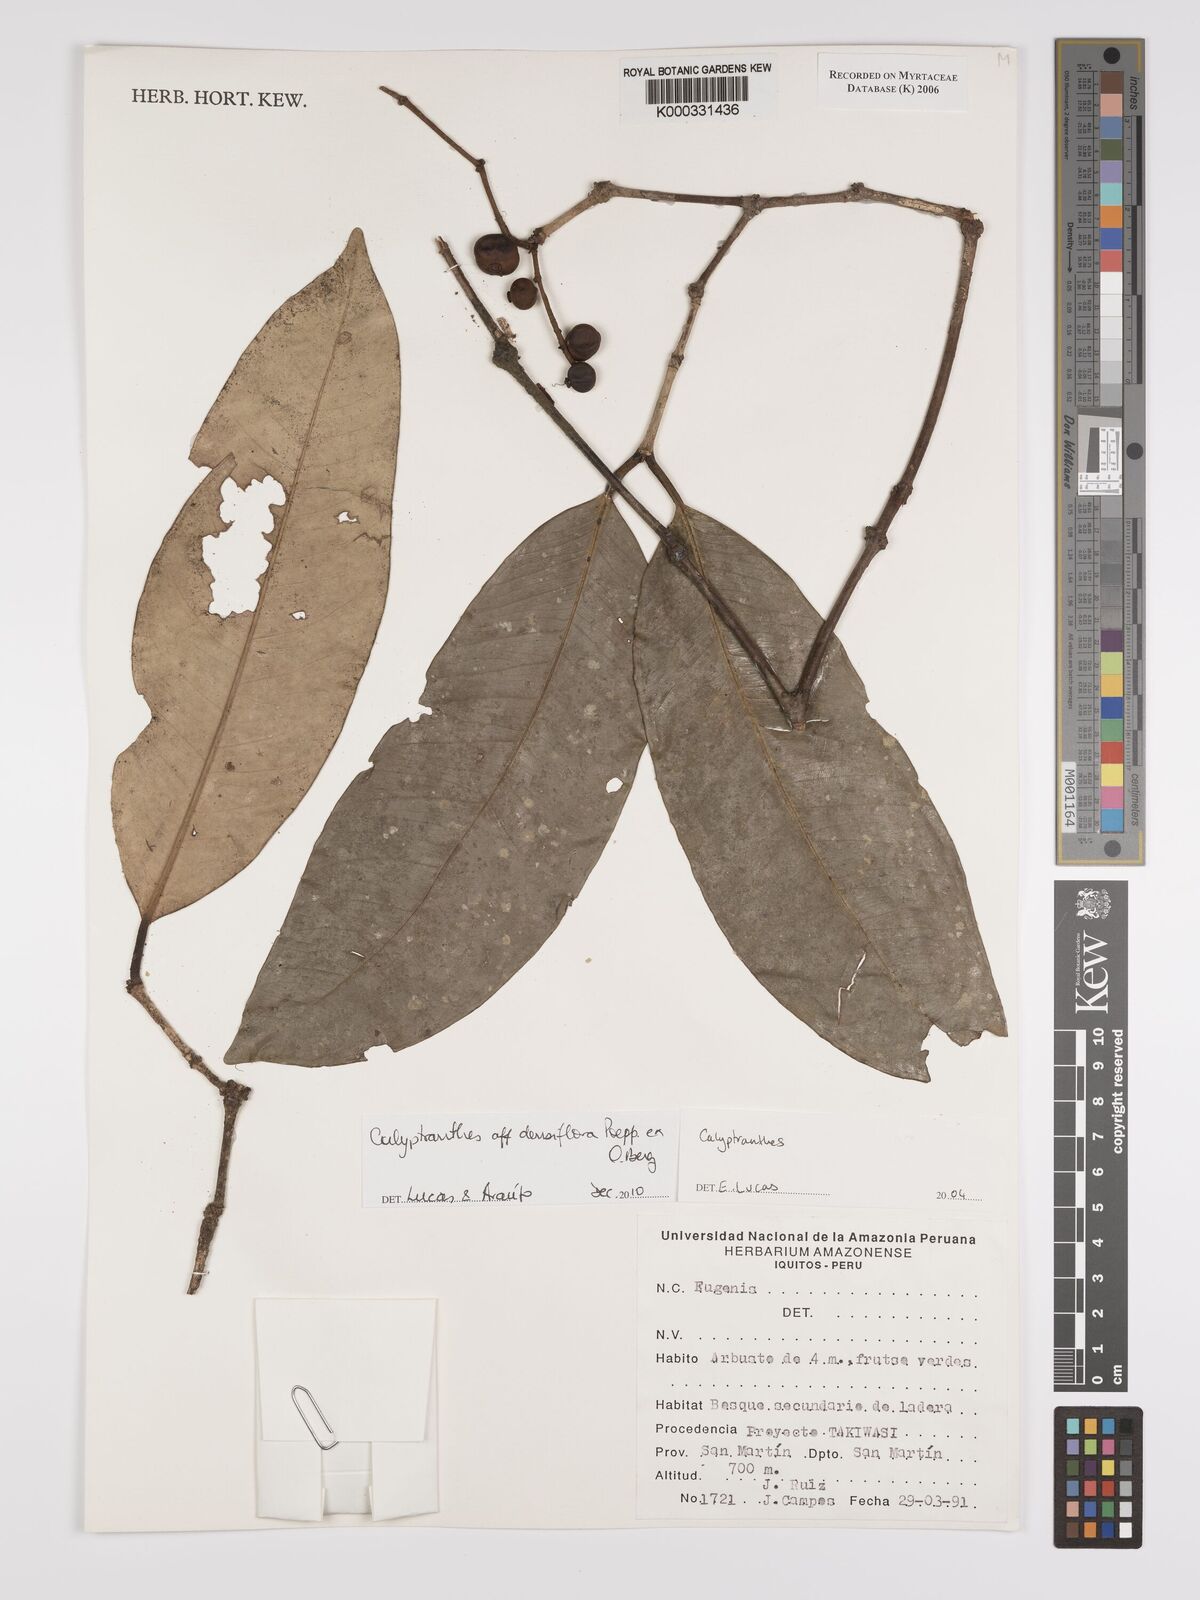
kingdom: Plantae
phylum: Tracheophyta
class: Magnoliopsida
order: Myrtales
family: Myrtaceae
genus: Calyptranthes
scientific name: Calyptranthes
